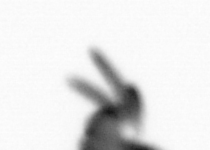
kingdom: Animalia
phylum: Annelida
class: Polychaeta
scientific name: Polychaeta
